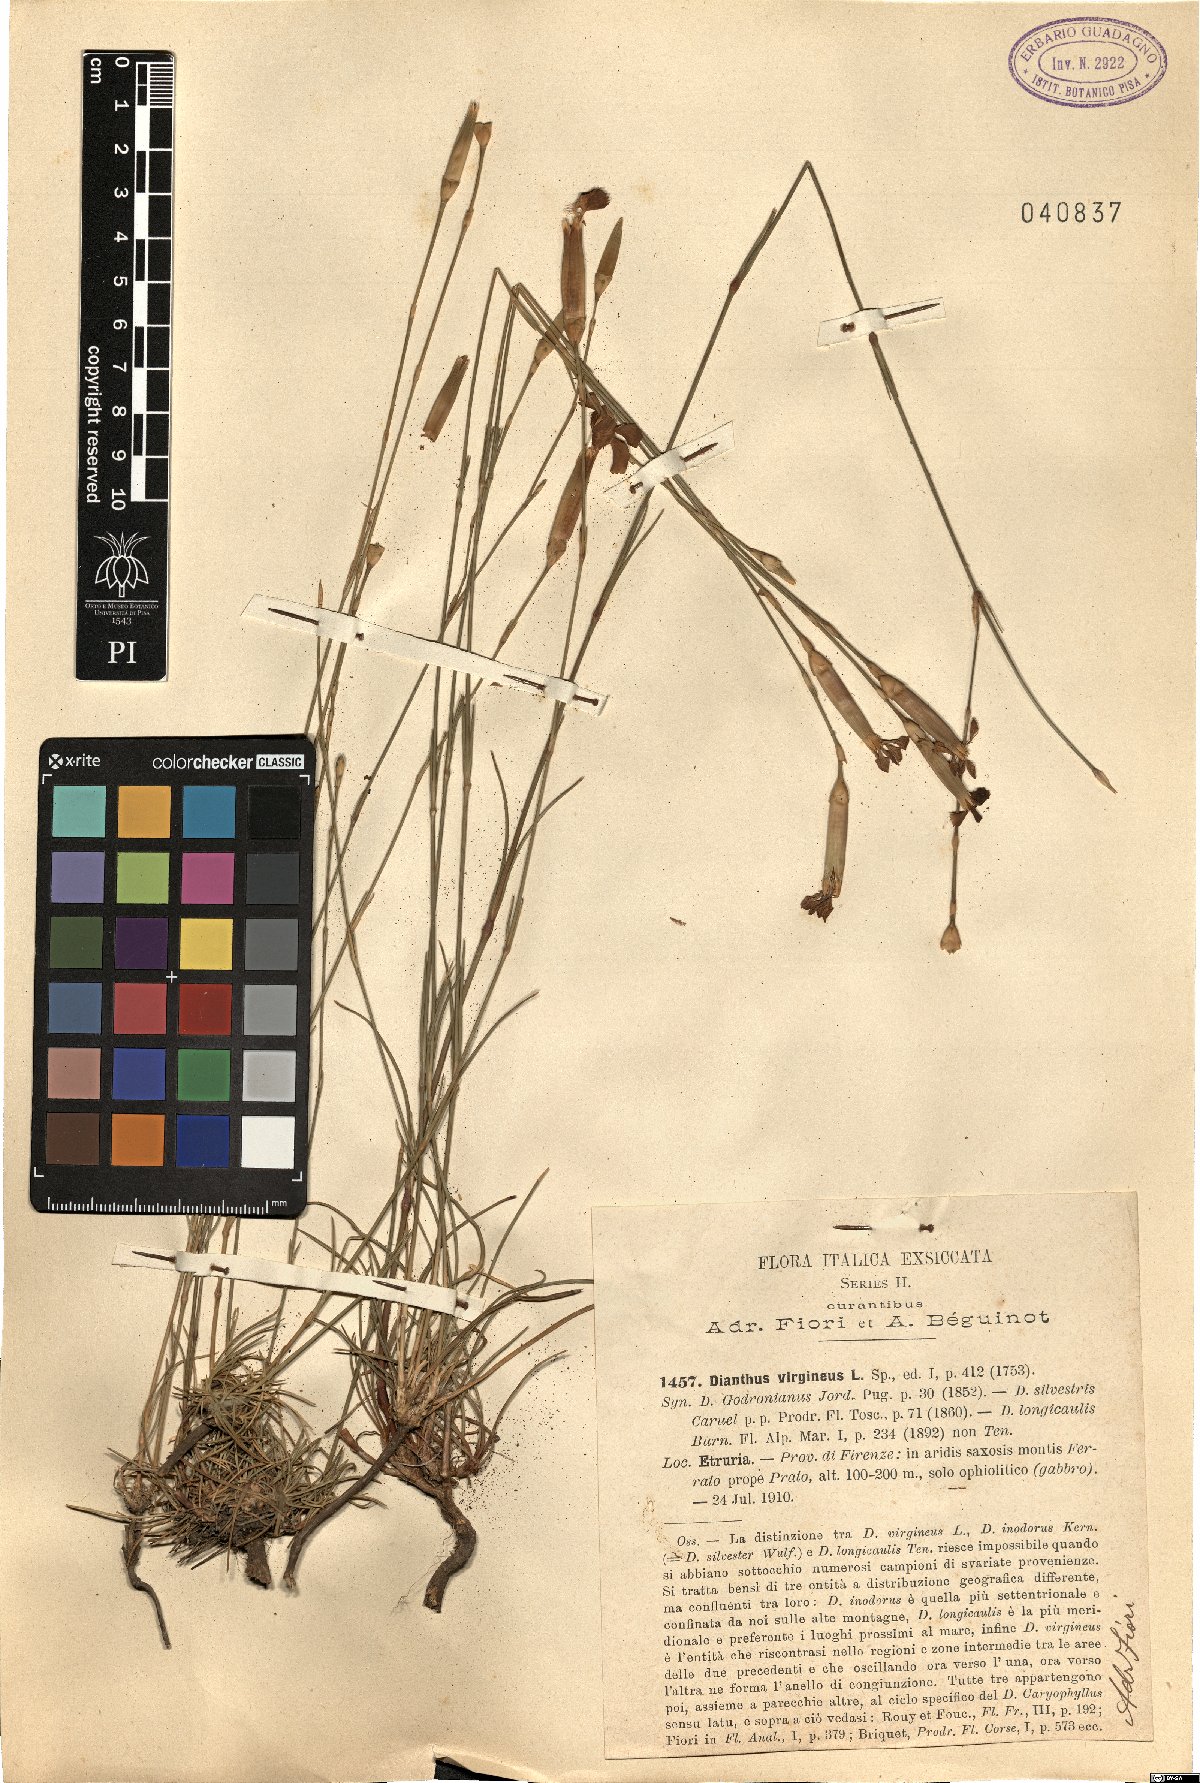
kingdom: Plantae
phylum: Tracheophyta
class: Magnoliopsida
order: Caryophyllales
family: Caryophyllaceae
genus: Dianthus
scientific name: Dianthus virgineus
